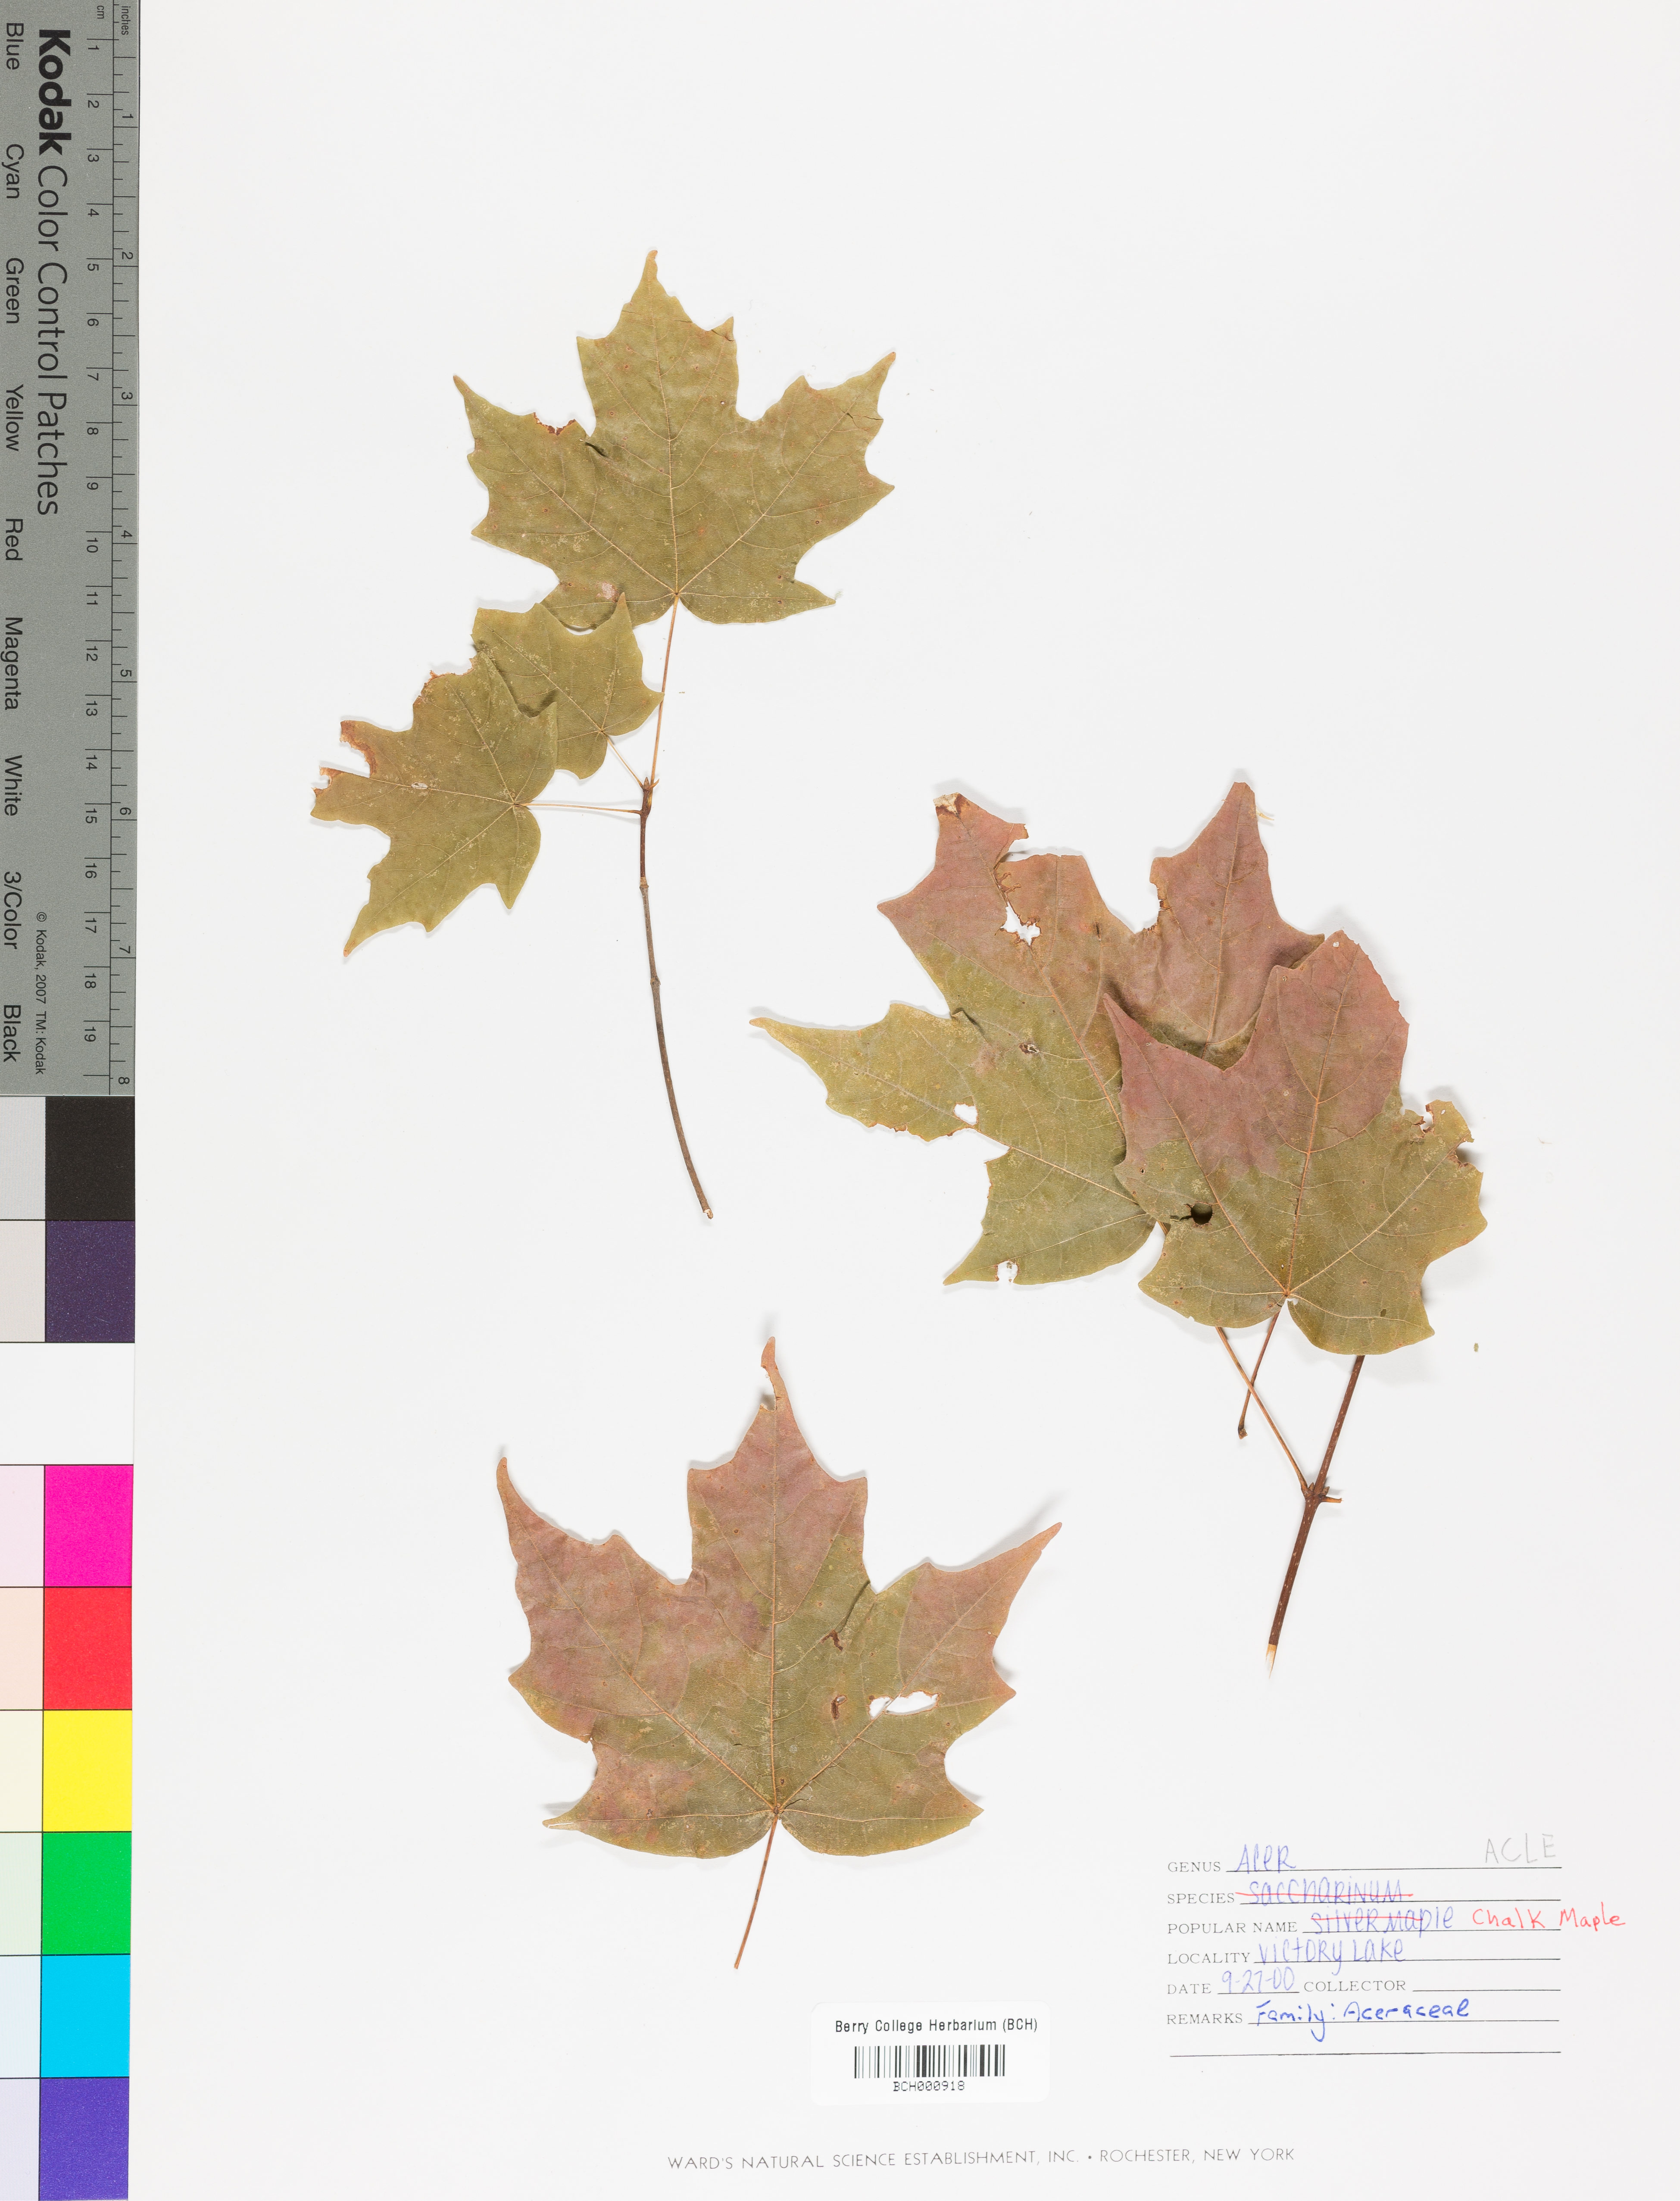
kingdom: Plantae
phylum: Tracheophyta
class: Magnoliopsida
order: Sapindales
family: Sapindaceae
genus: Acer
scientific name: Acer leucoderme
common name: Chalk maple
